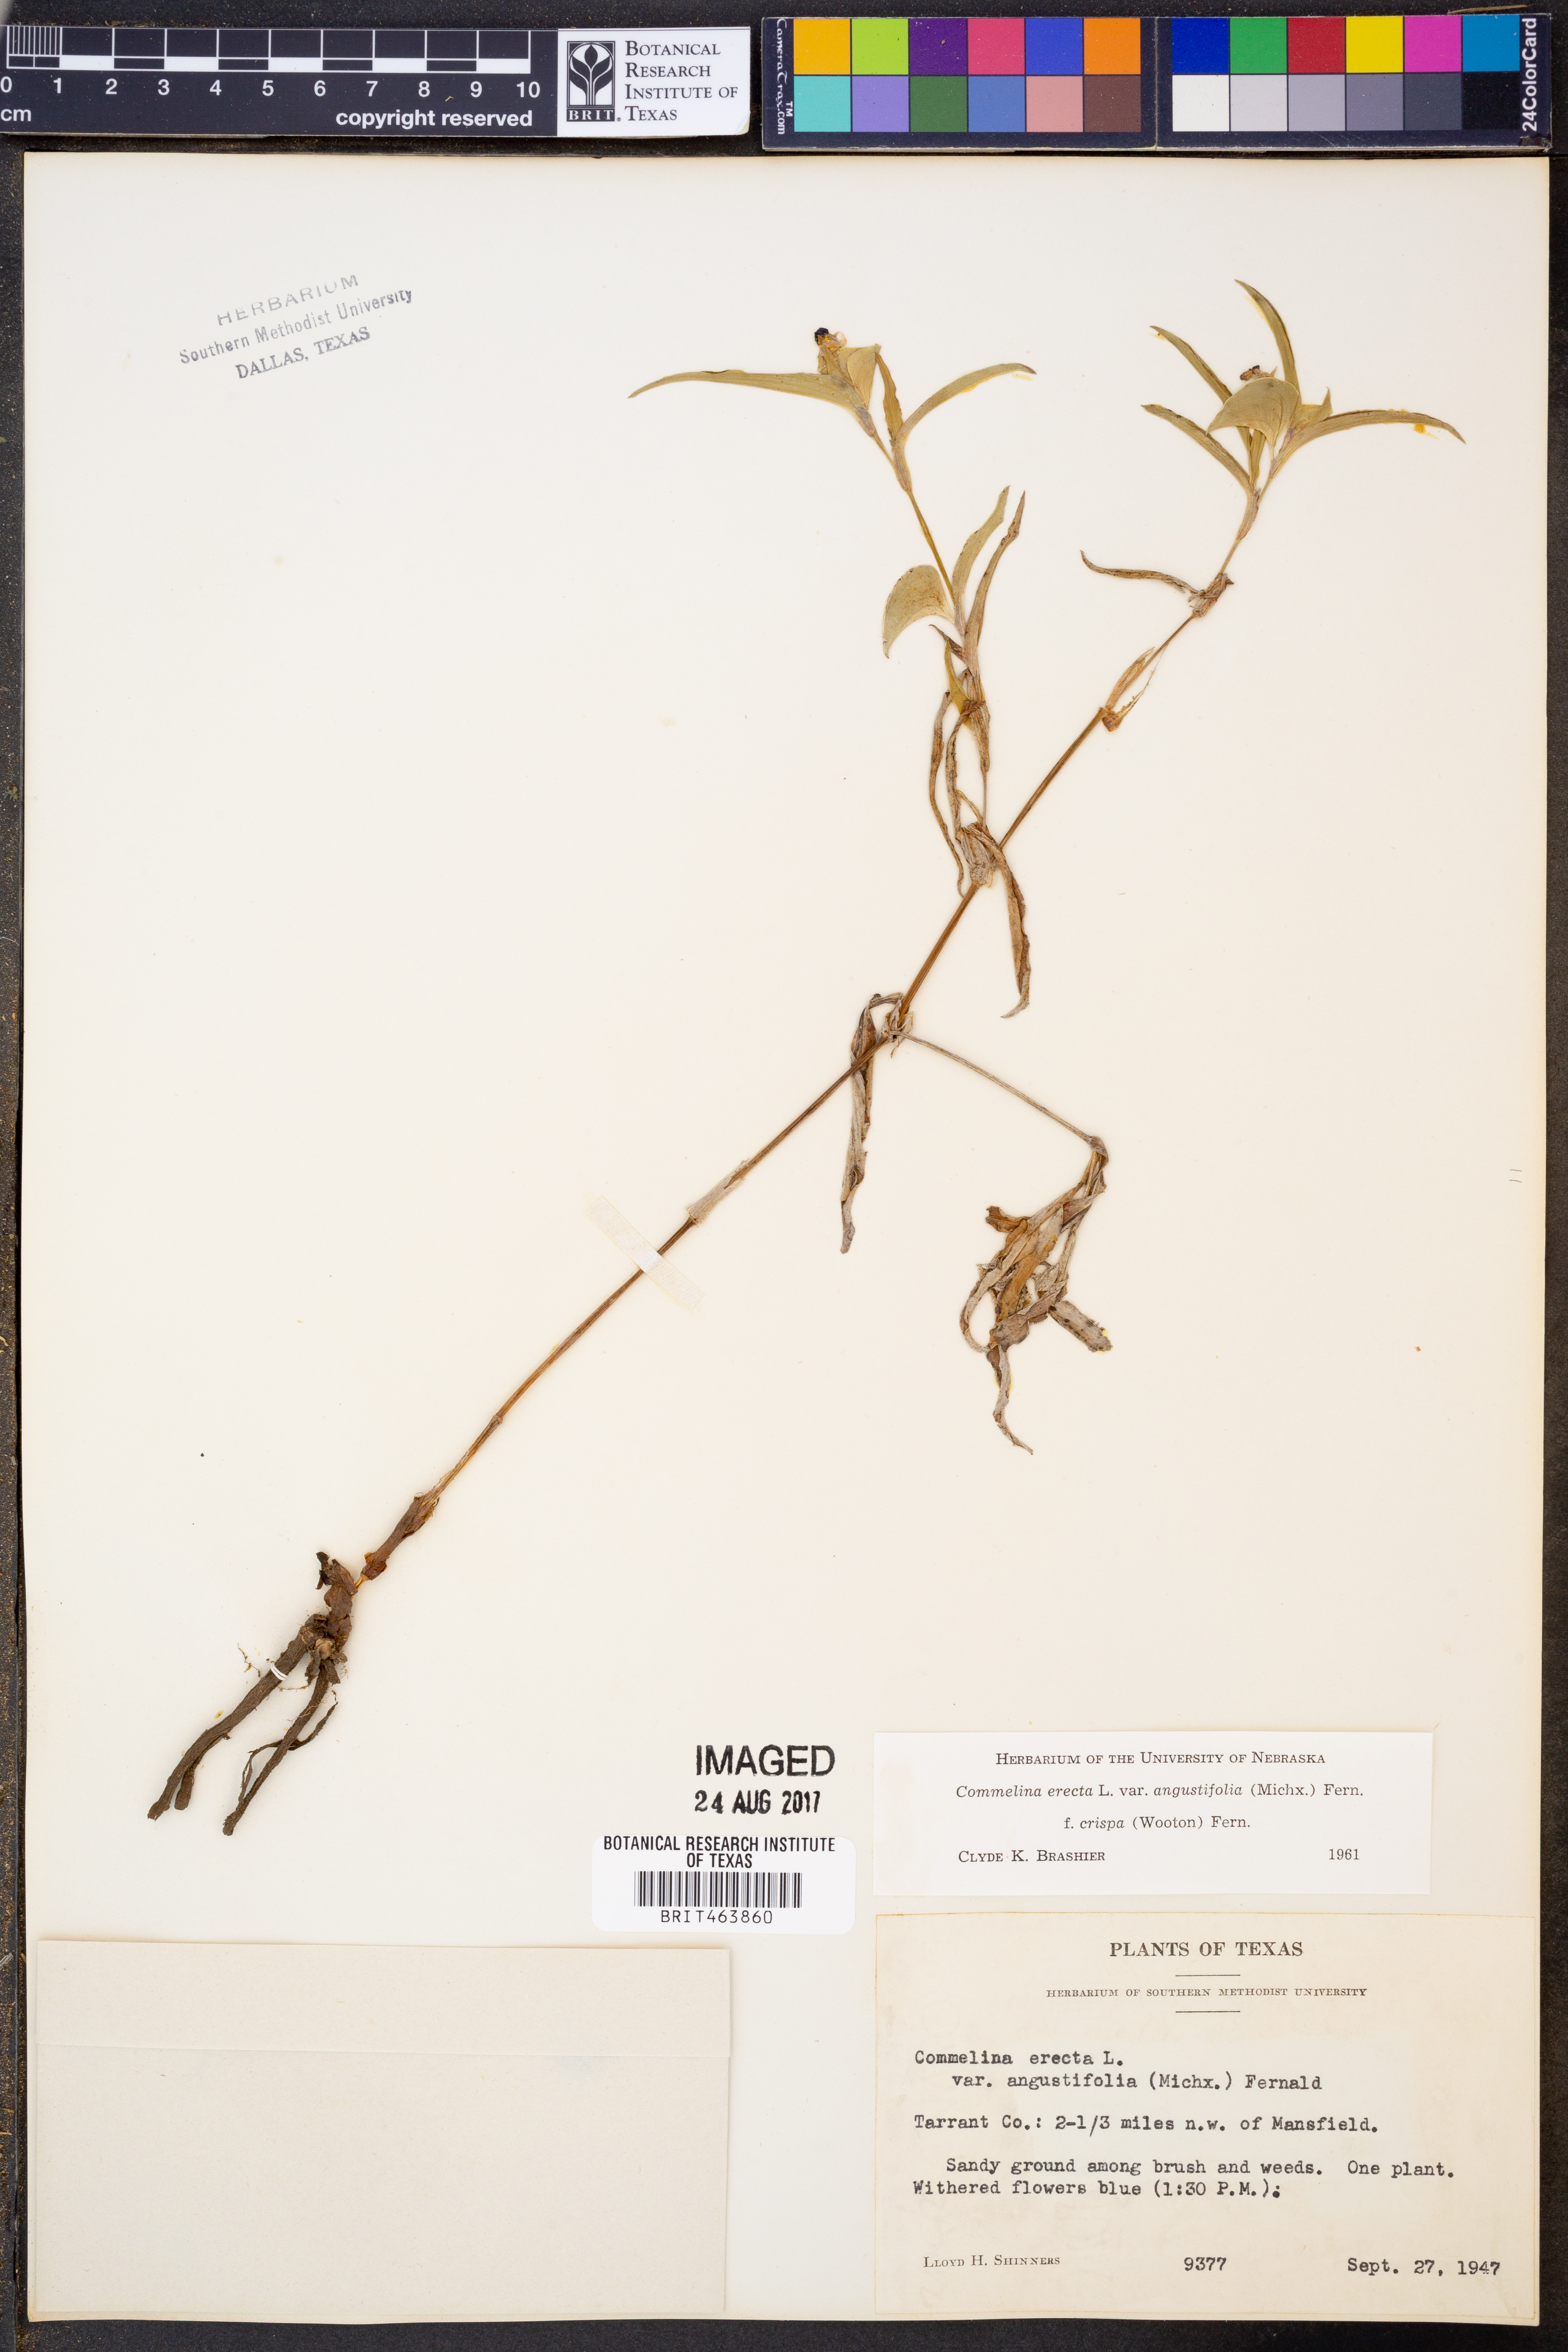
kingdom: Plantae
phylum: Tracheophyta
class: Liliopsida
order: Commelinales
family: Commelinaceae
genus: Commelina
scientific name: Commelina erecta
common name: Blousel blommetjie
